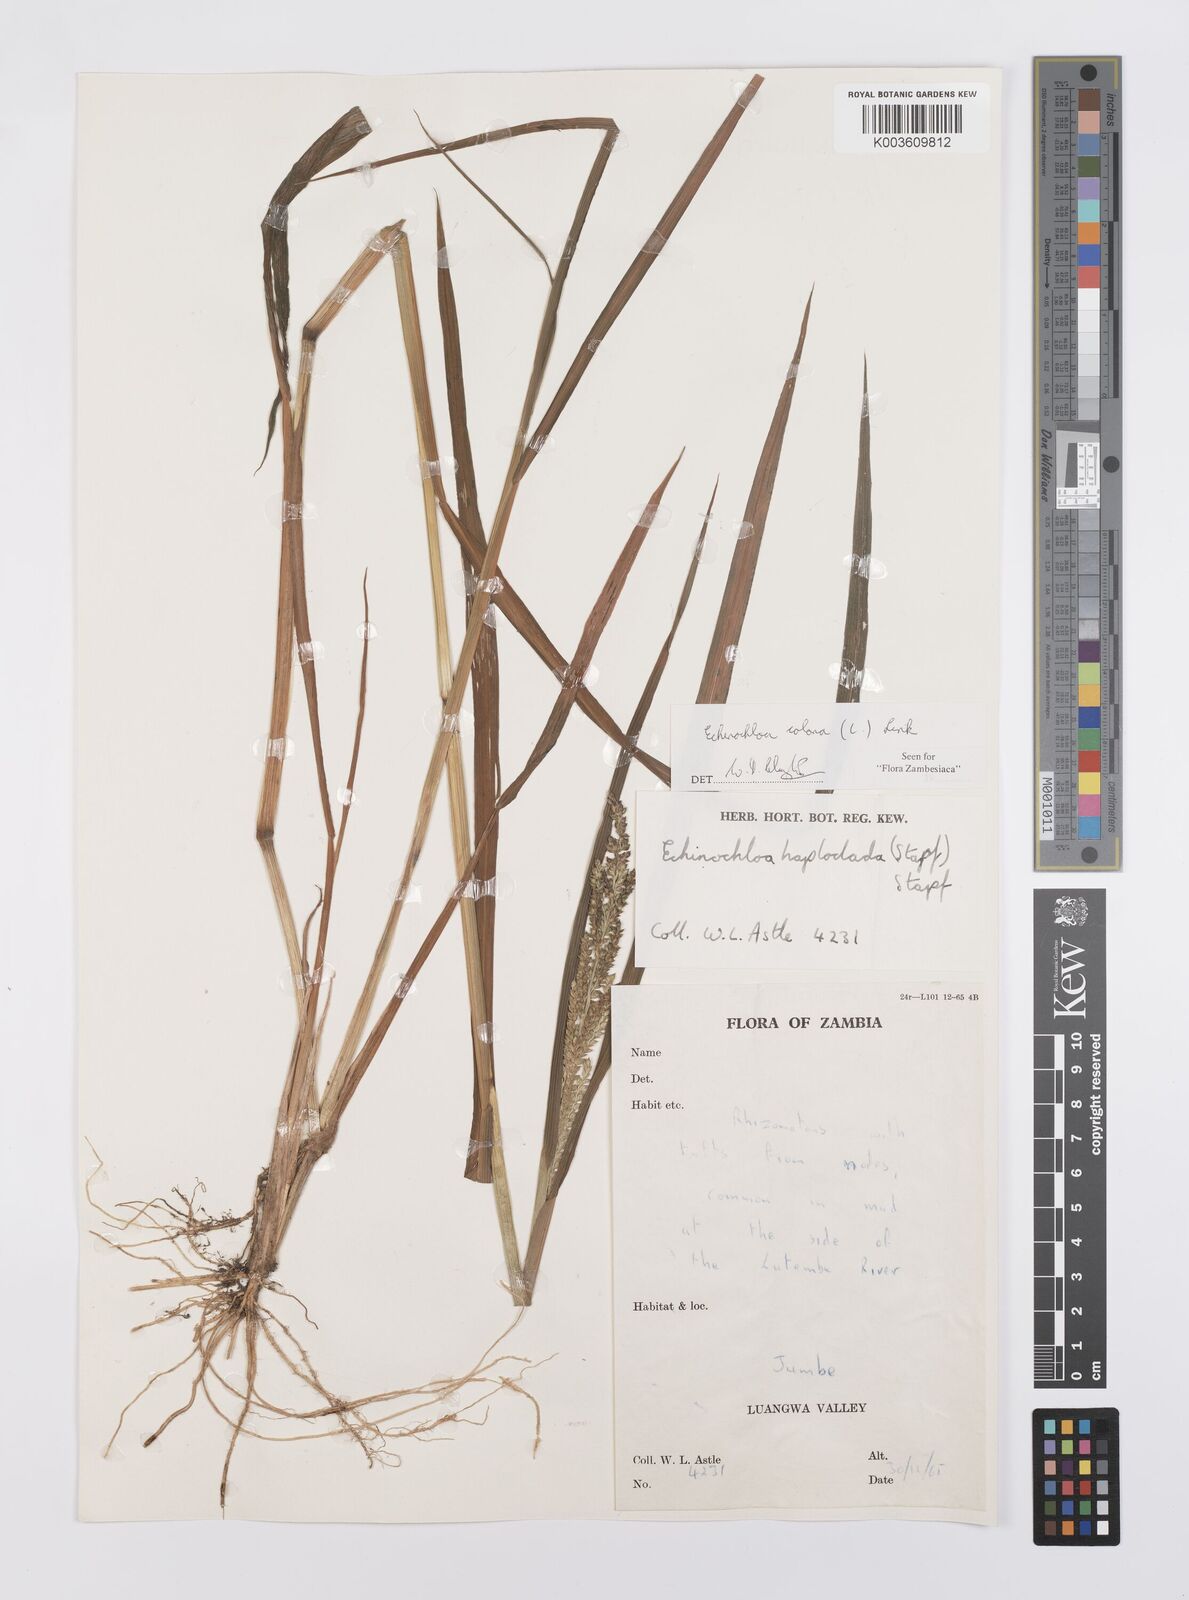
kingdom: Plantae
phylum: Tracheophyta
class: Liliopsida
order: Poales
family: Poaceae
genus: Echinochloa
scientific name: Echinochloa colonum
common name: Jungle rice
